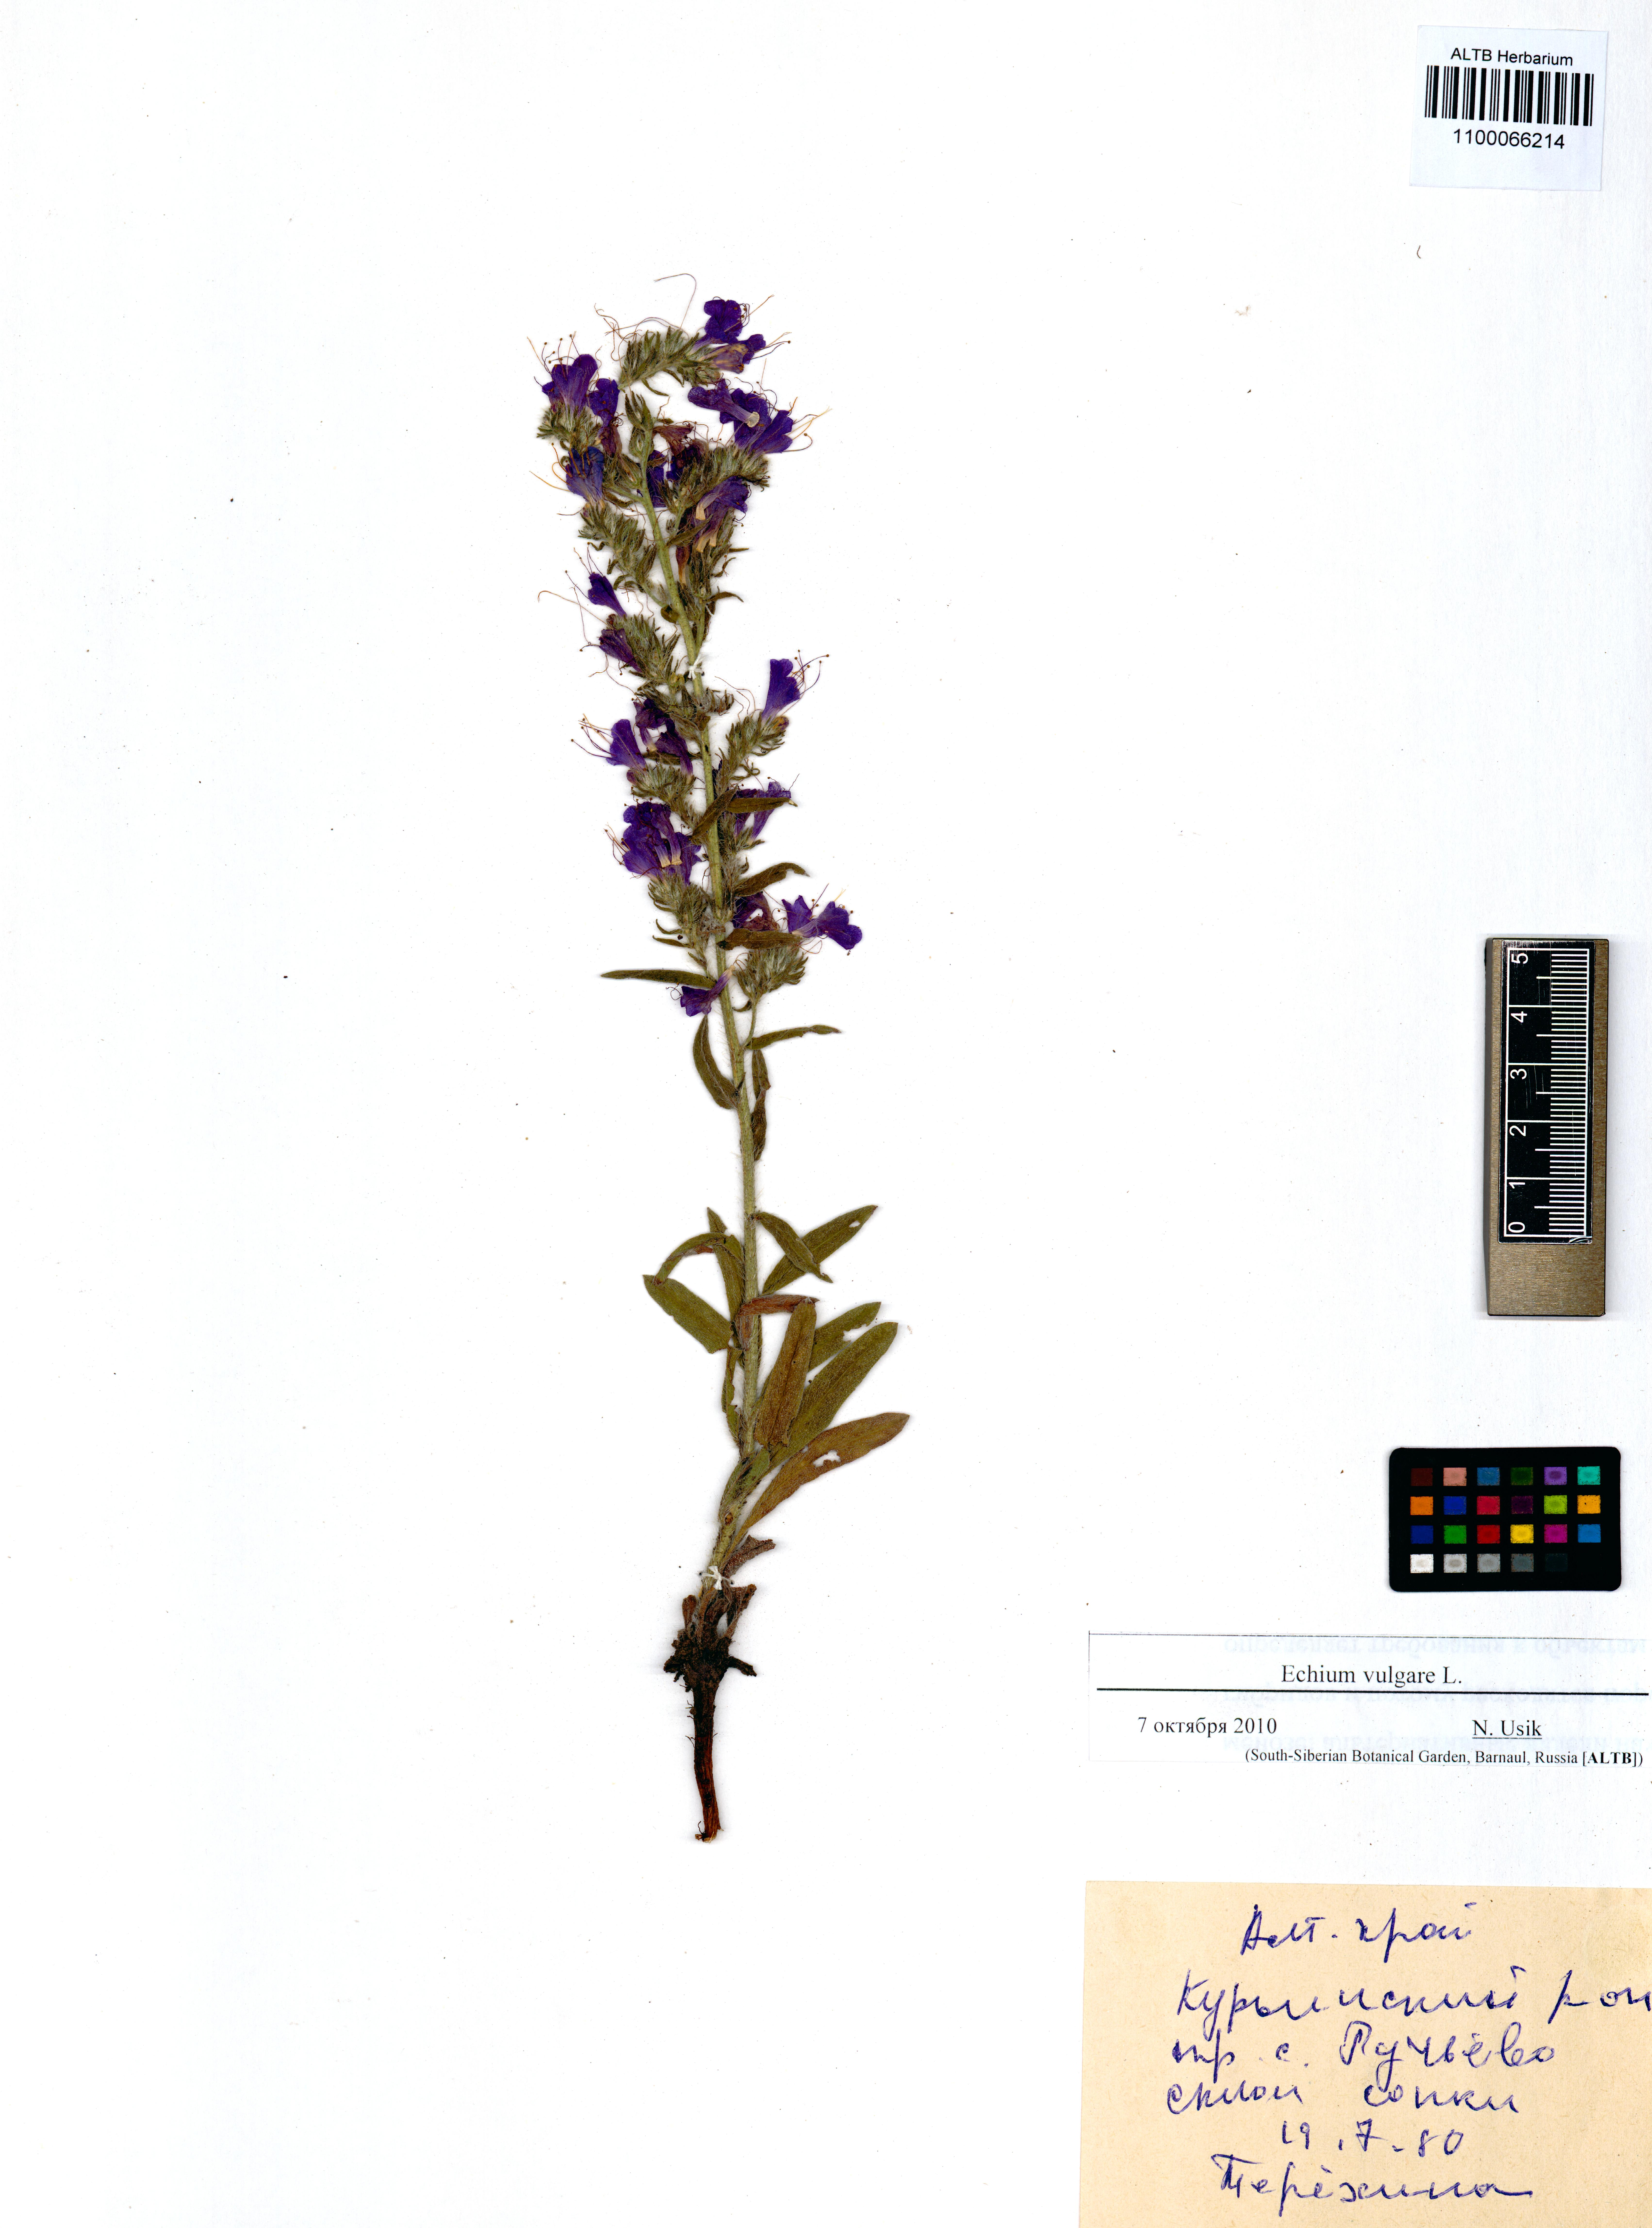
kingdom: Plantae
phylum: Tracheophyta
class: Magnoliopsida
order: Boraginales
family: Boraginaceae
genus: Echium
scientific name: Echium vulgare
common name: Common viper's bugloss
